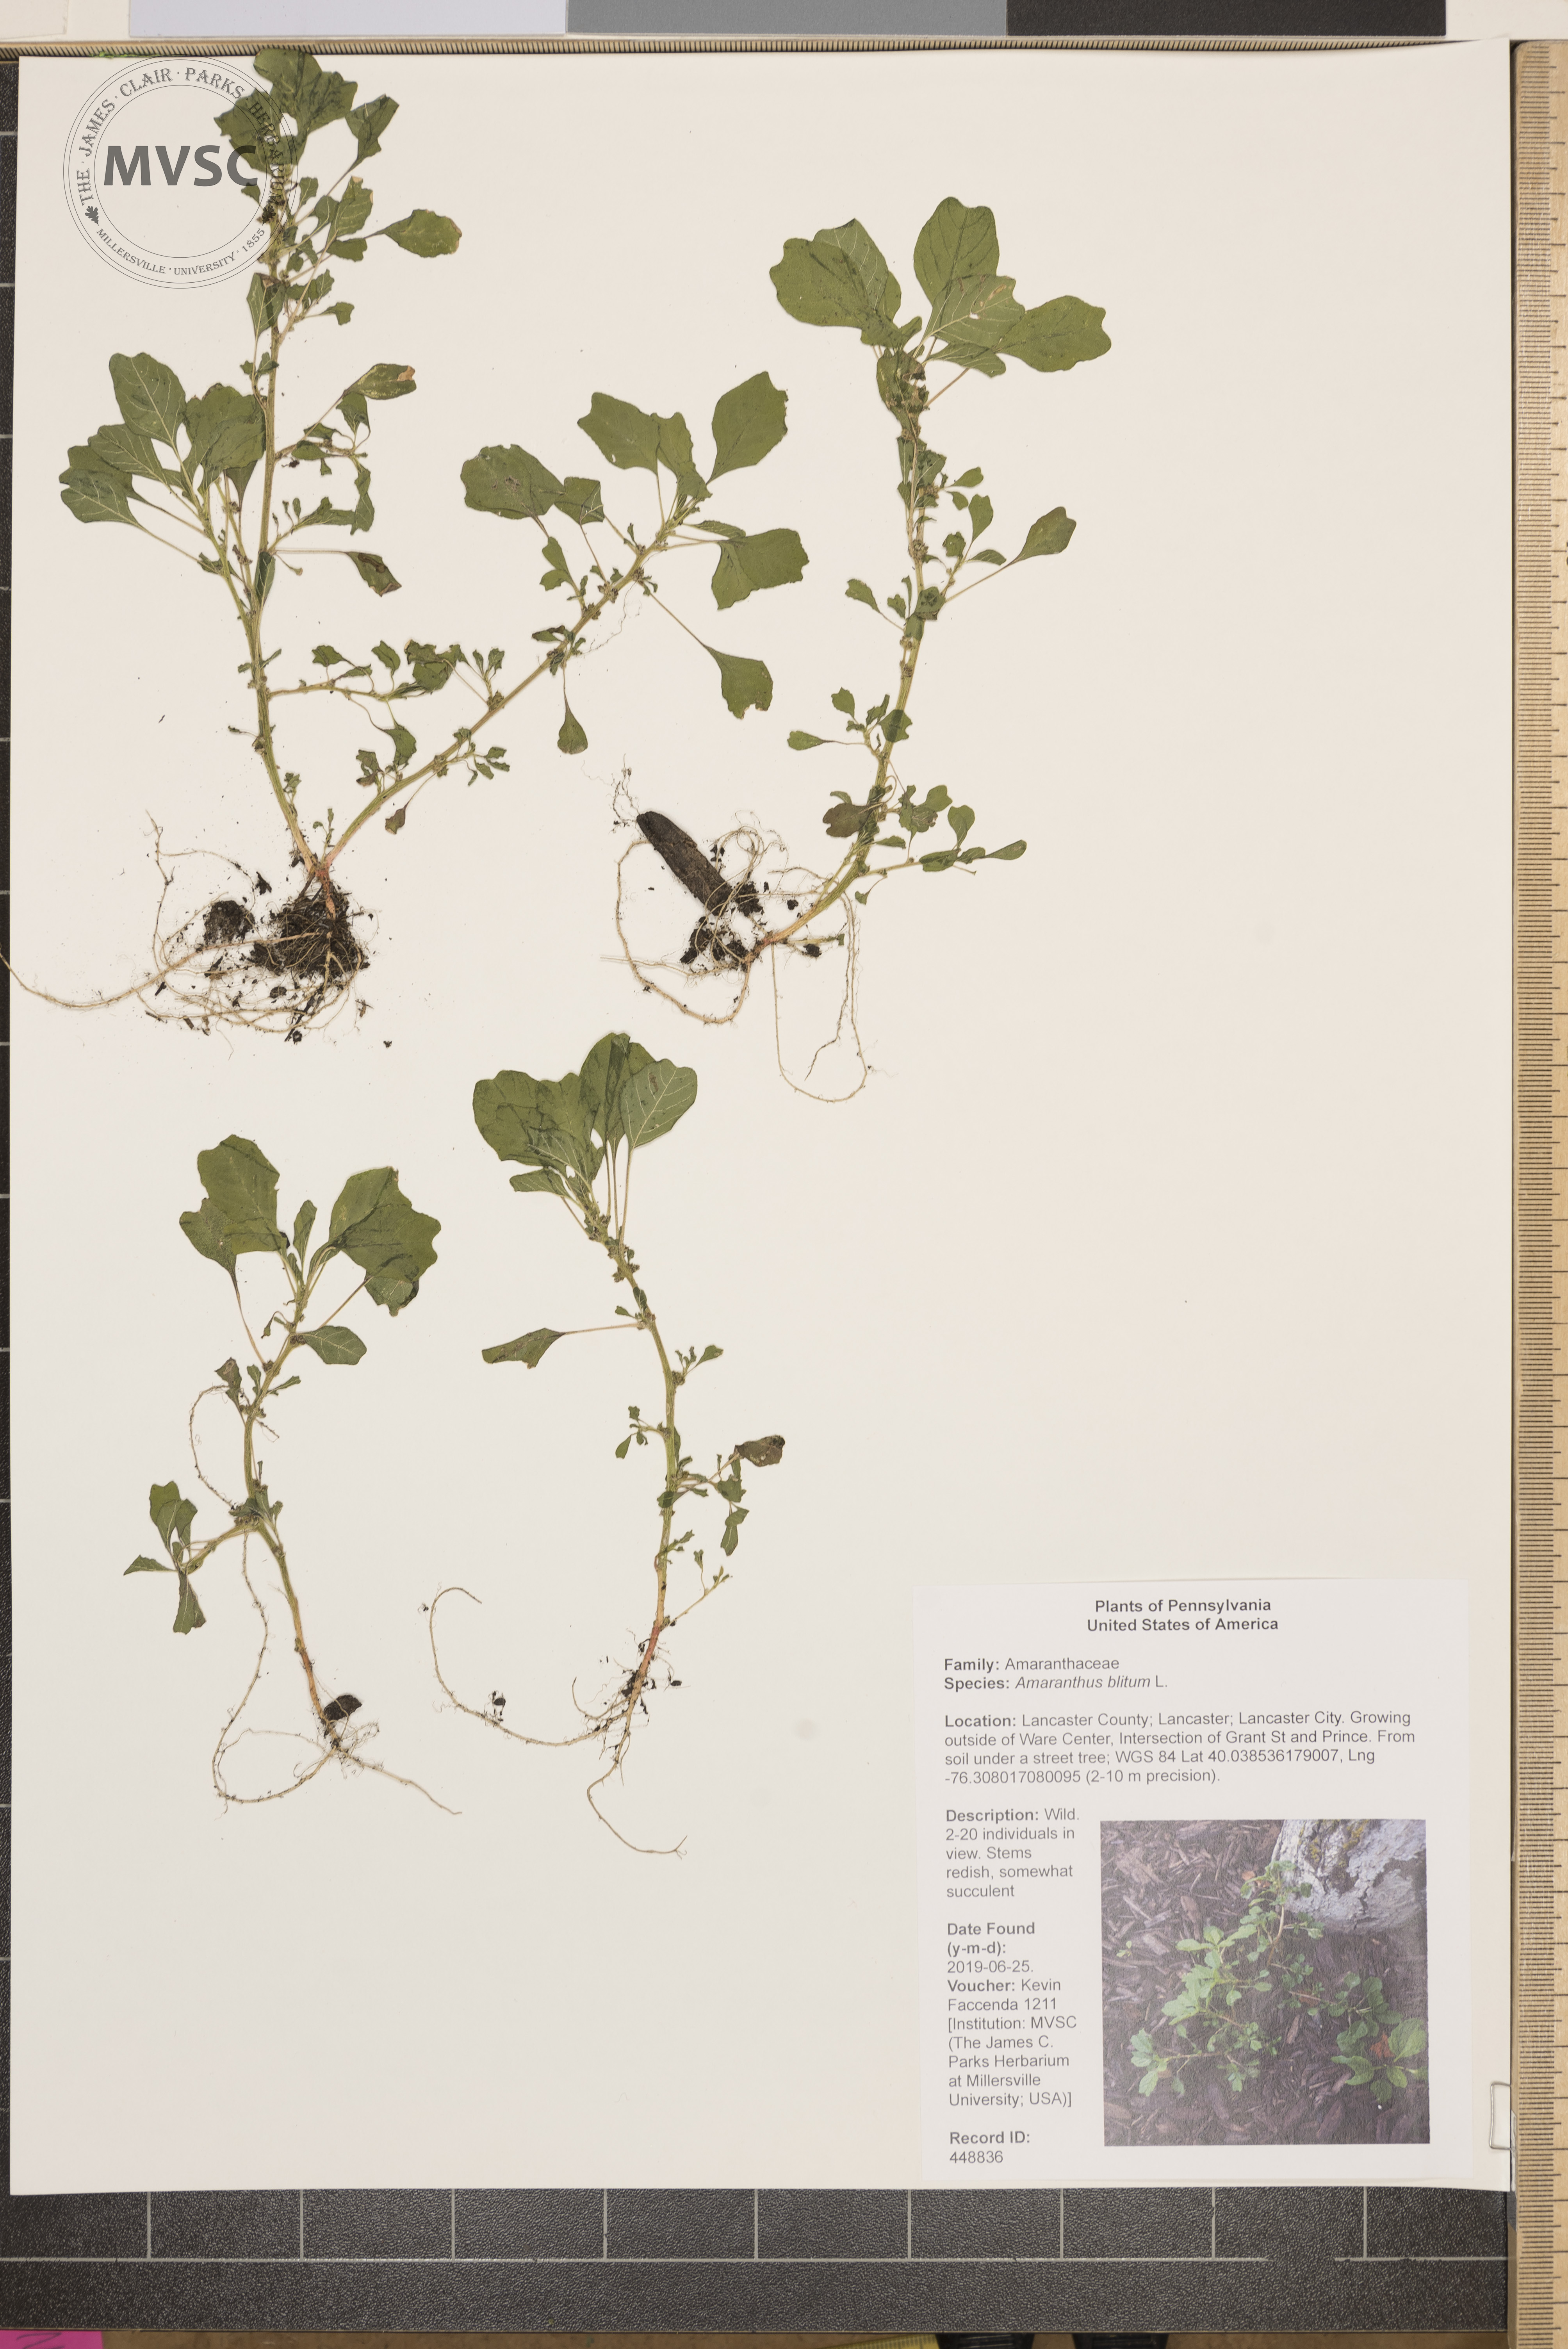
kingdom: Plantae
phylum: Tracheophyta
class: Magnoliopsida
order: Caryophyllales
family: Amaranthaceae
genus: Amaranthus
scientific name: Amaranthus blitum
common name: Purple amaranth
